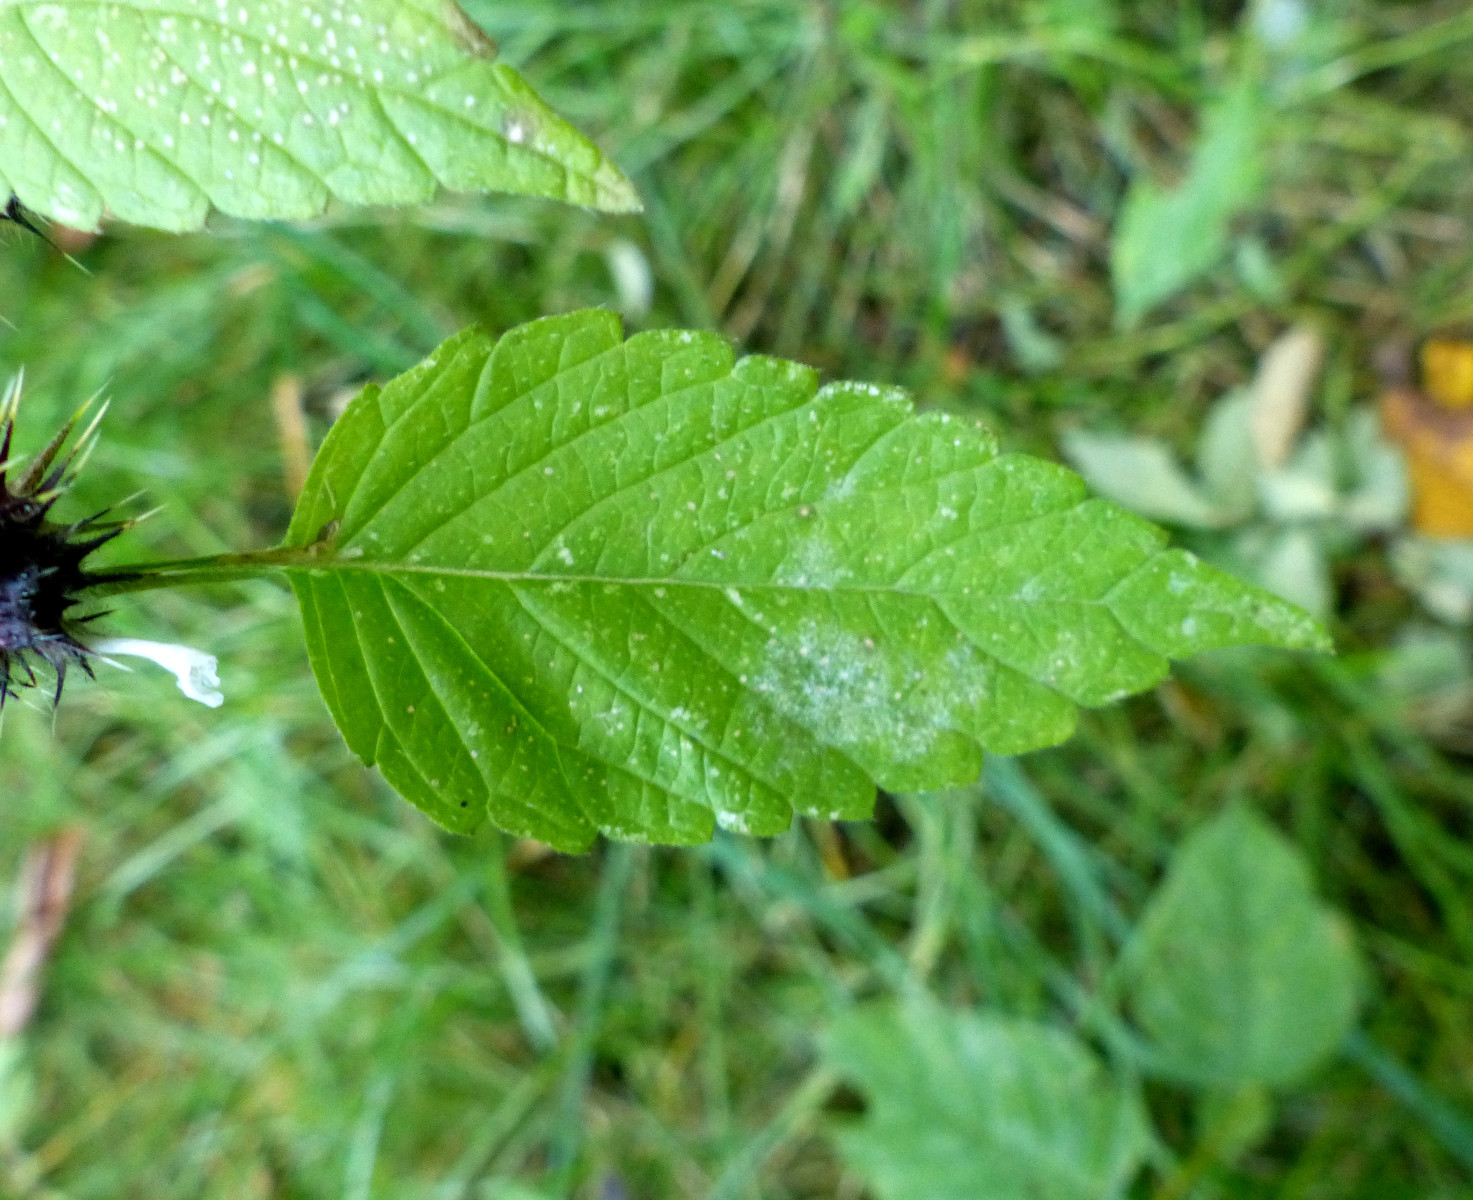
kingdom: Fungi
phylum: Ascomycota
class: Leotiomycetes
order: Helotiales
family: Erysiphaceae
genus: Neoerysiphe
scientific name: Neoerysiphe galeopsidis
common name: Mint mildew
